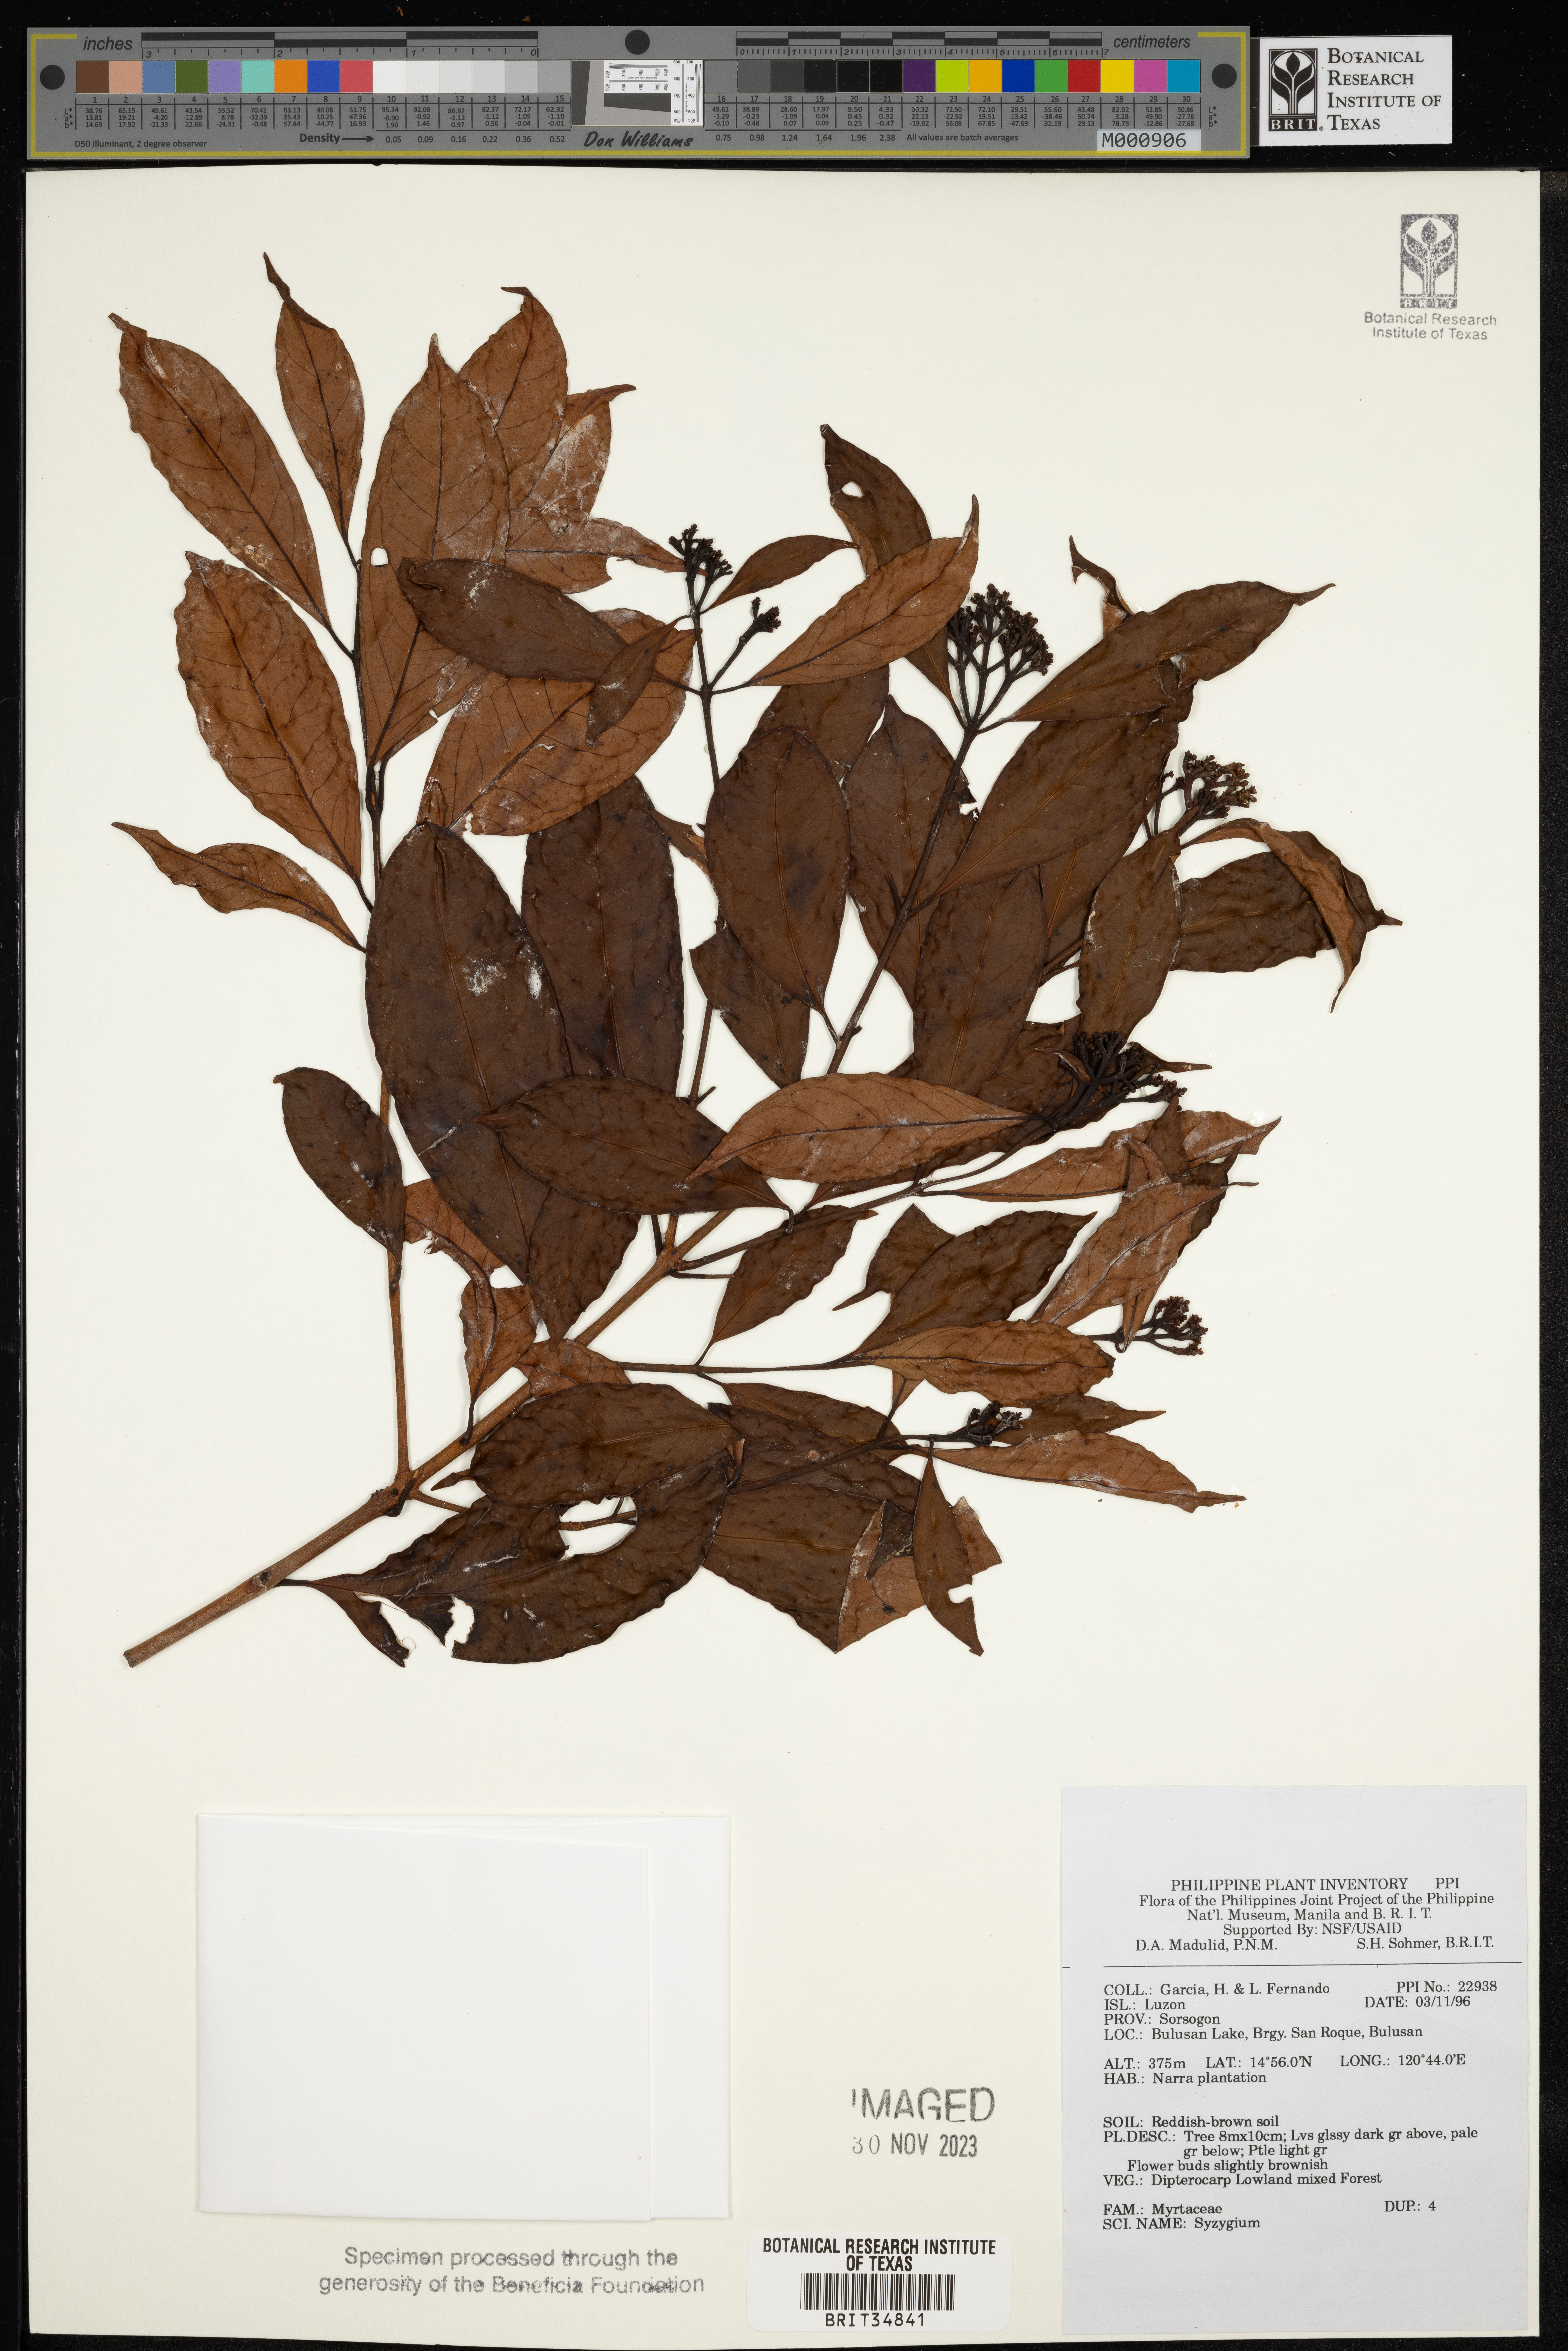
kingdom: Plantae
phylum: Tracheophyta
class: Magnoliopsida
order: Myrtales
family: Myrtaceae
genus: Syzygium
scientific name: Syzygium
